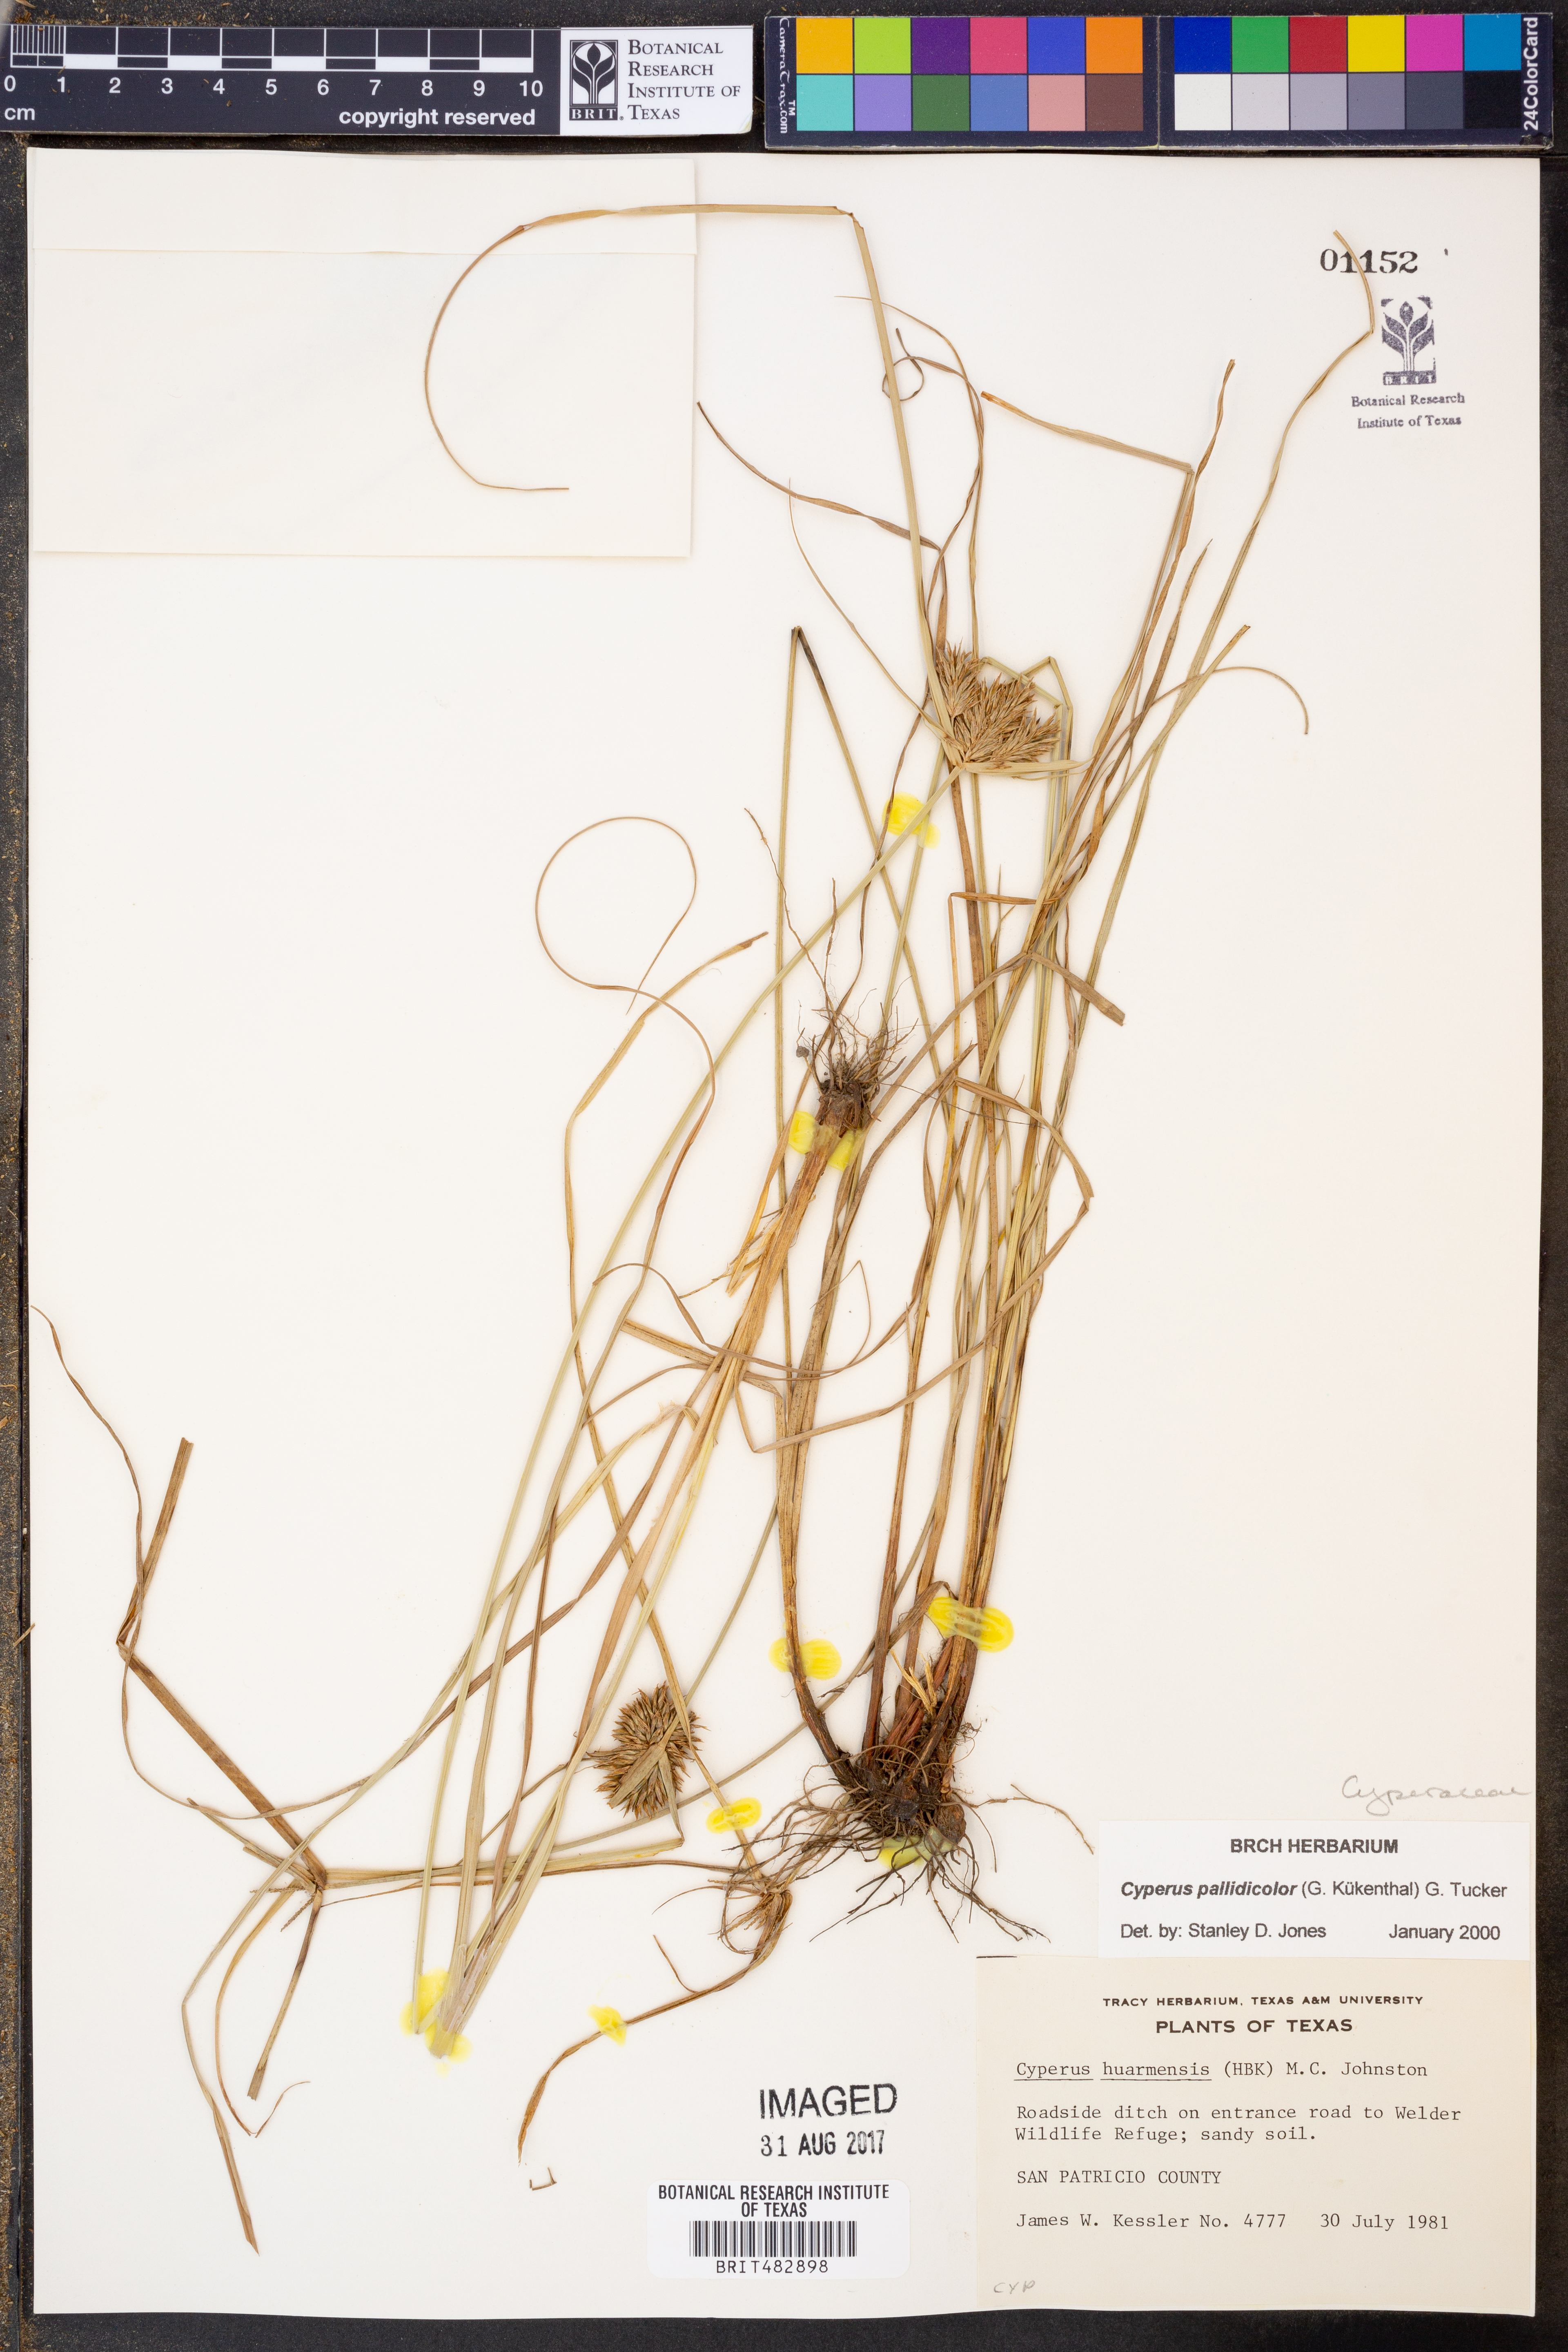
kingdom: Plantae
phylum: Tracheophyta
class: Liliopsida
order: Poales
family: Cyperaceae
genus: Cyperus
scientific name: Cyperus odoratus
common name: Fragrant flatsedge
